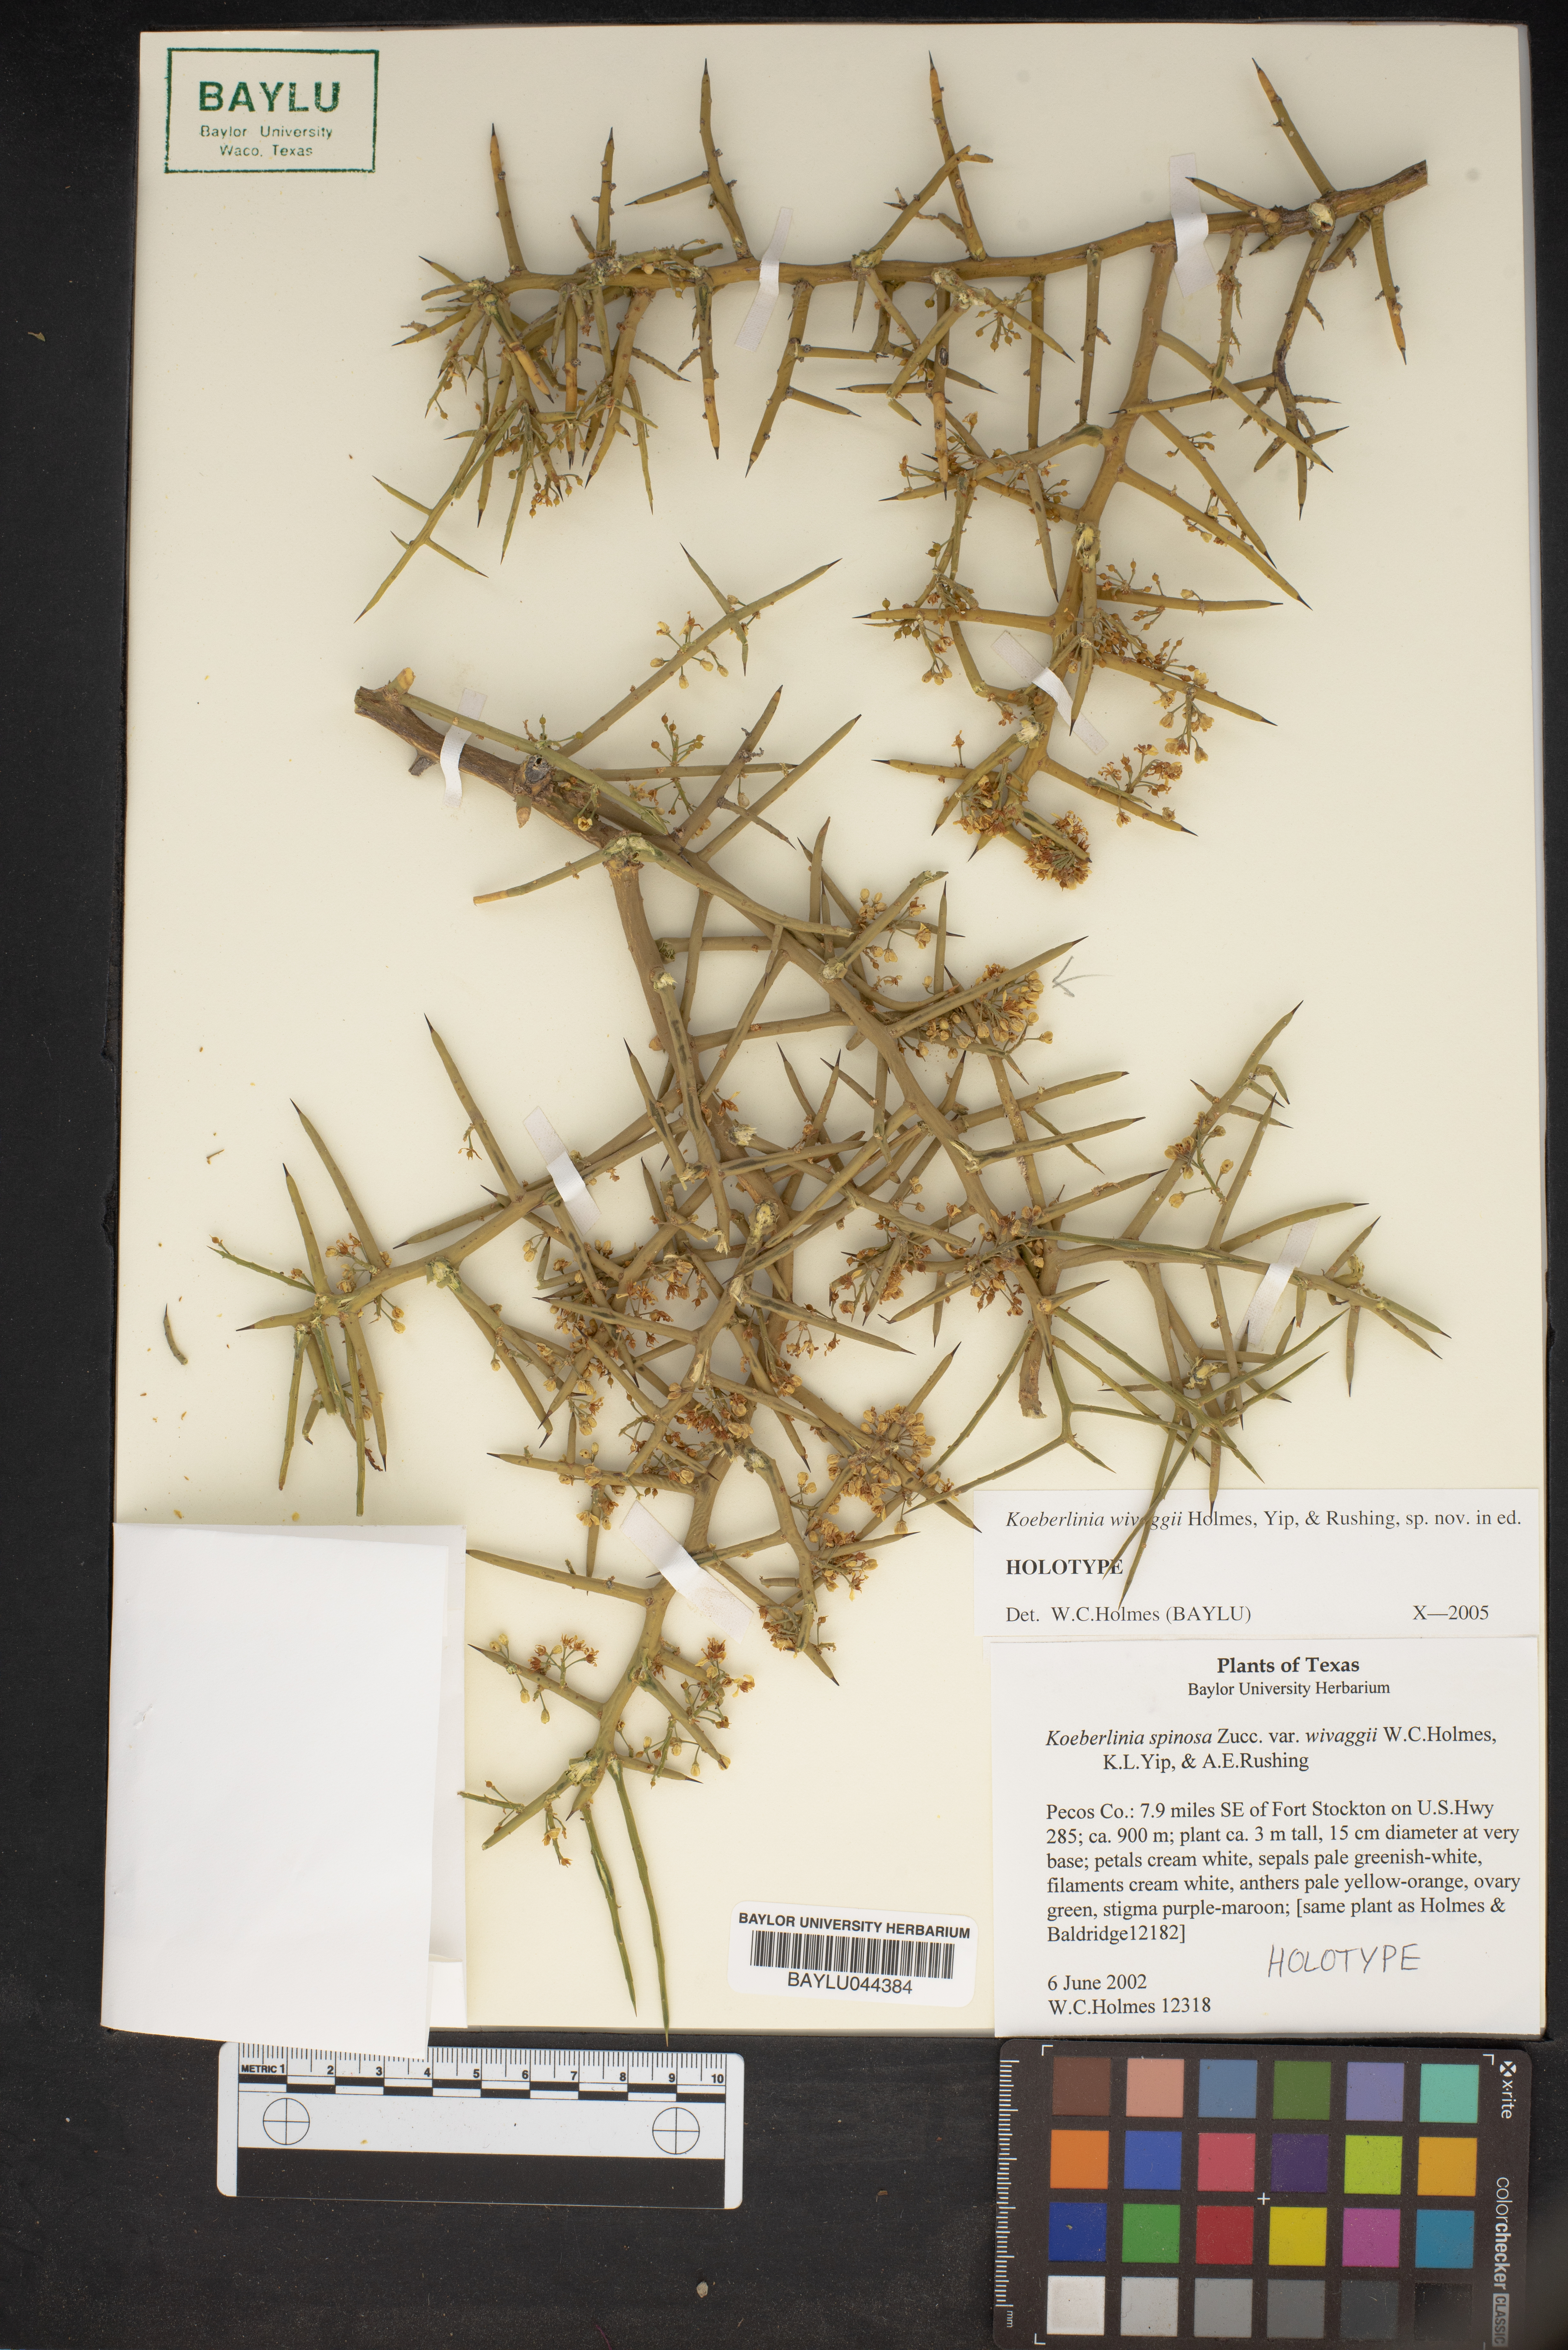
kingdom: Plantae
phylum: Tracheophyta
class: Magnoliopsida
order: Brassicales
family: Koeberliniaceae
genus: Koeberlinia
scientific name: Koeberlinia spinosa
